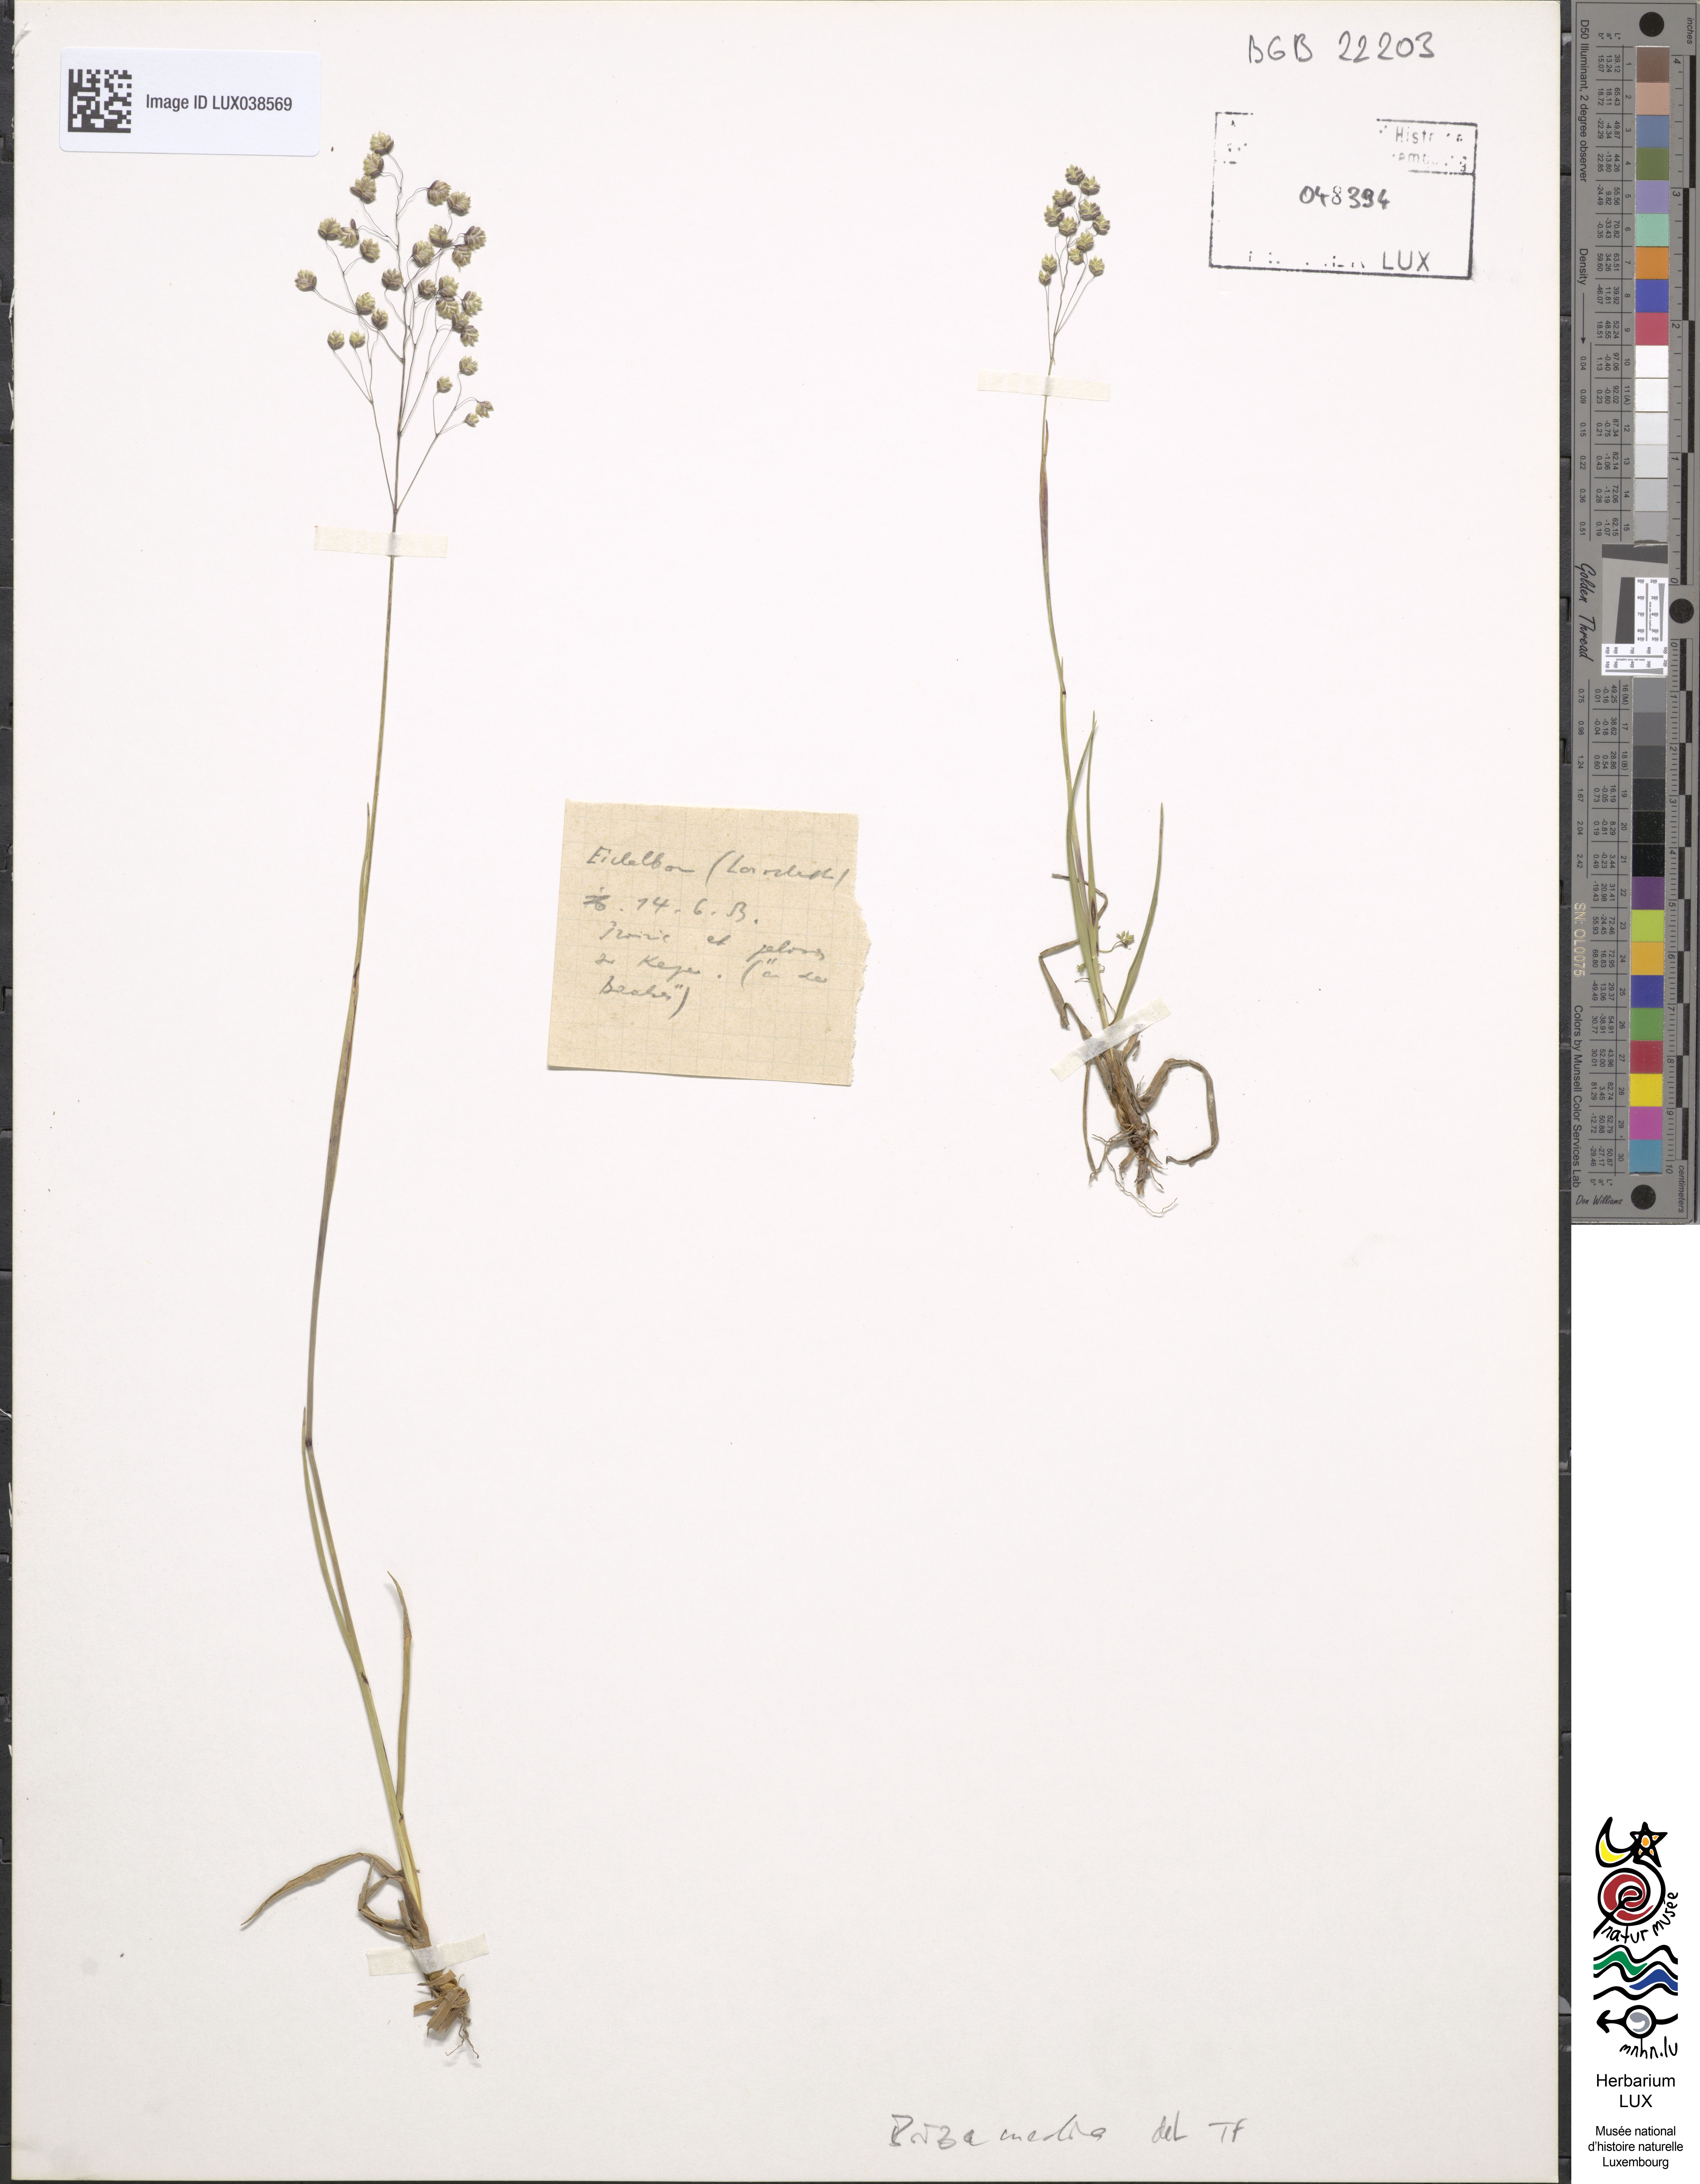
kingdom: Plantae
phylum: Tracheophyta
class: Liliopsida
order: Poales
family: Poaceae
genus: Briza
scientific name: Briza media
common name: Quaking grass
